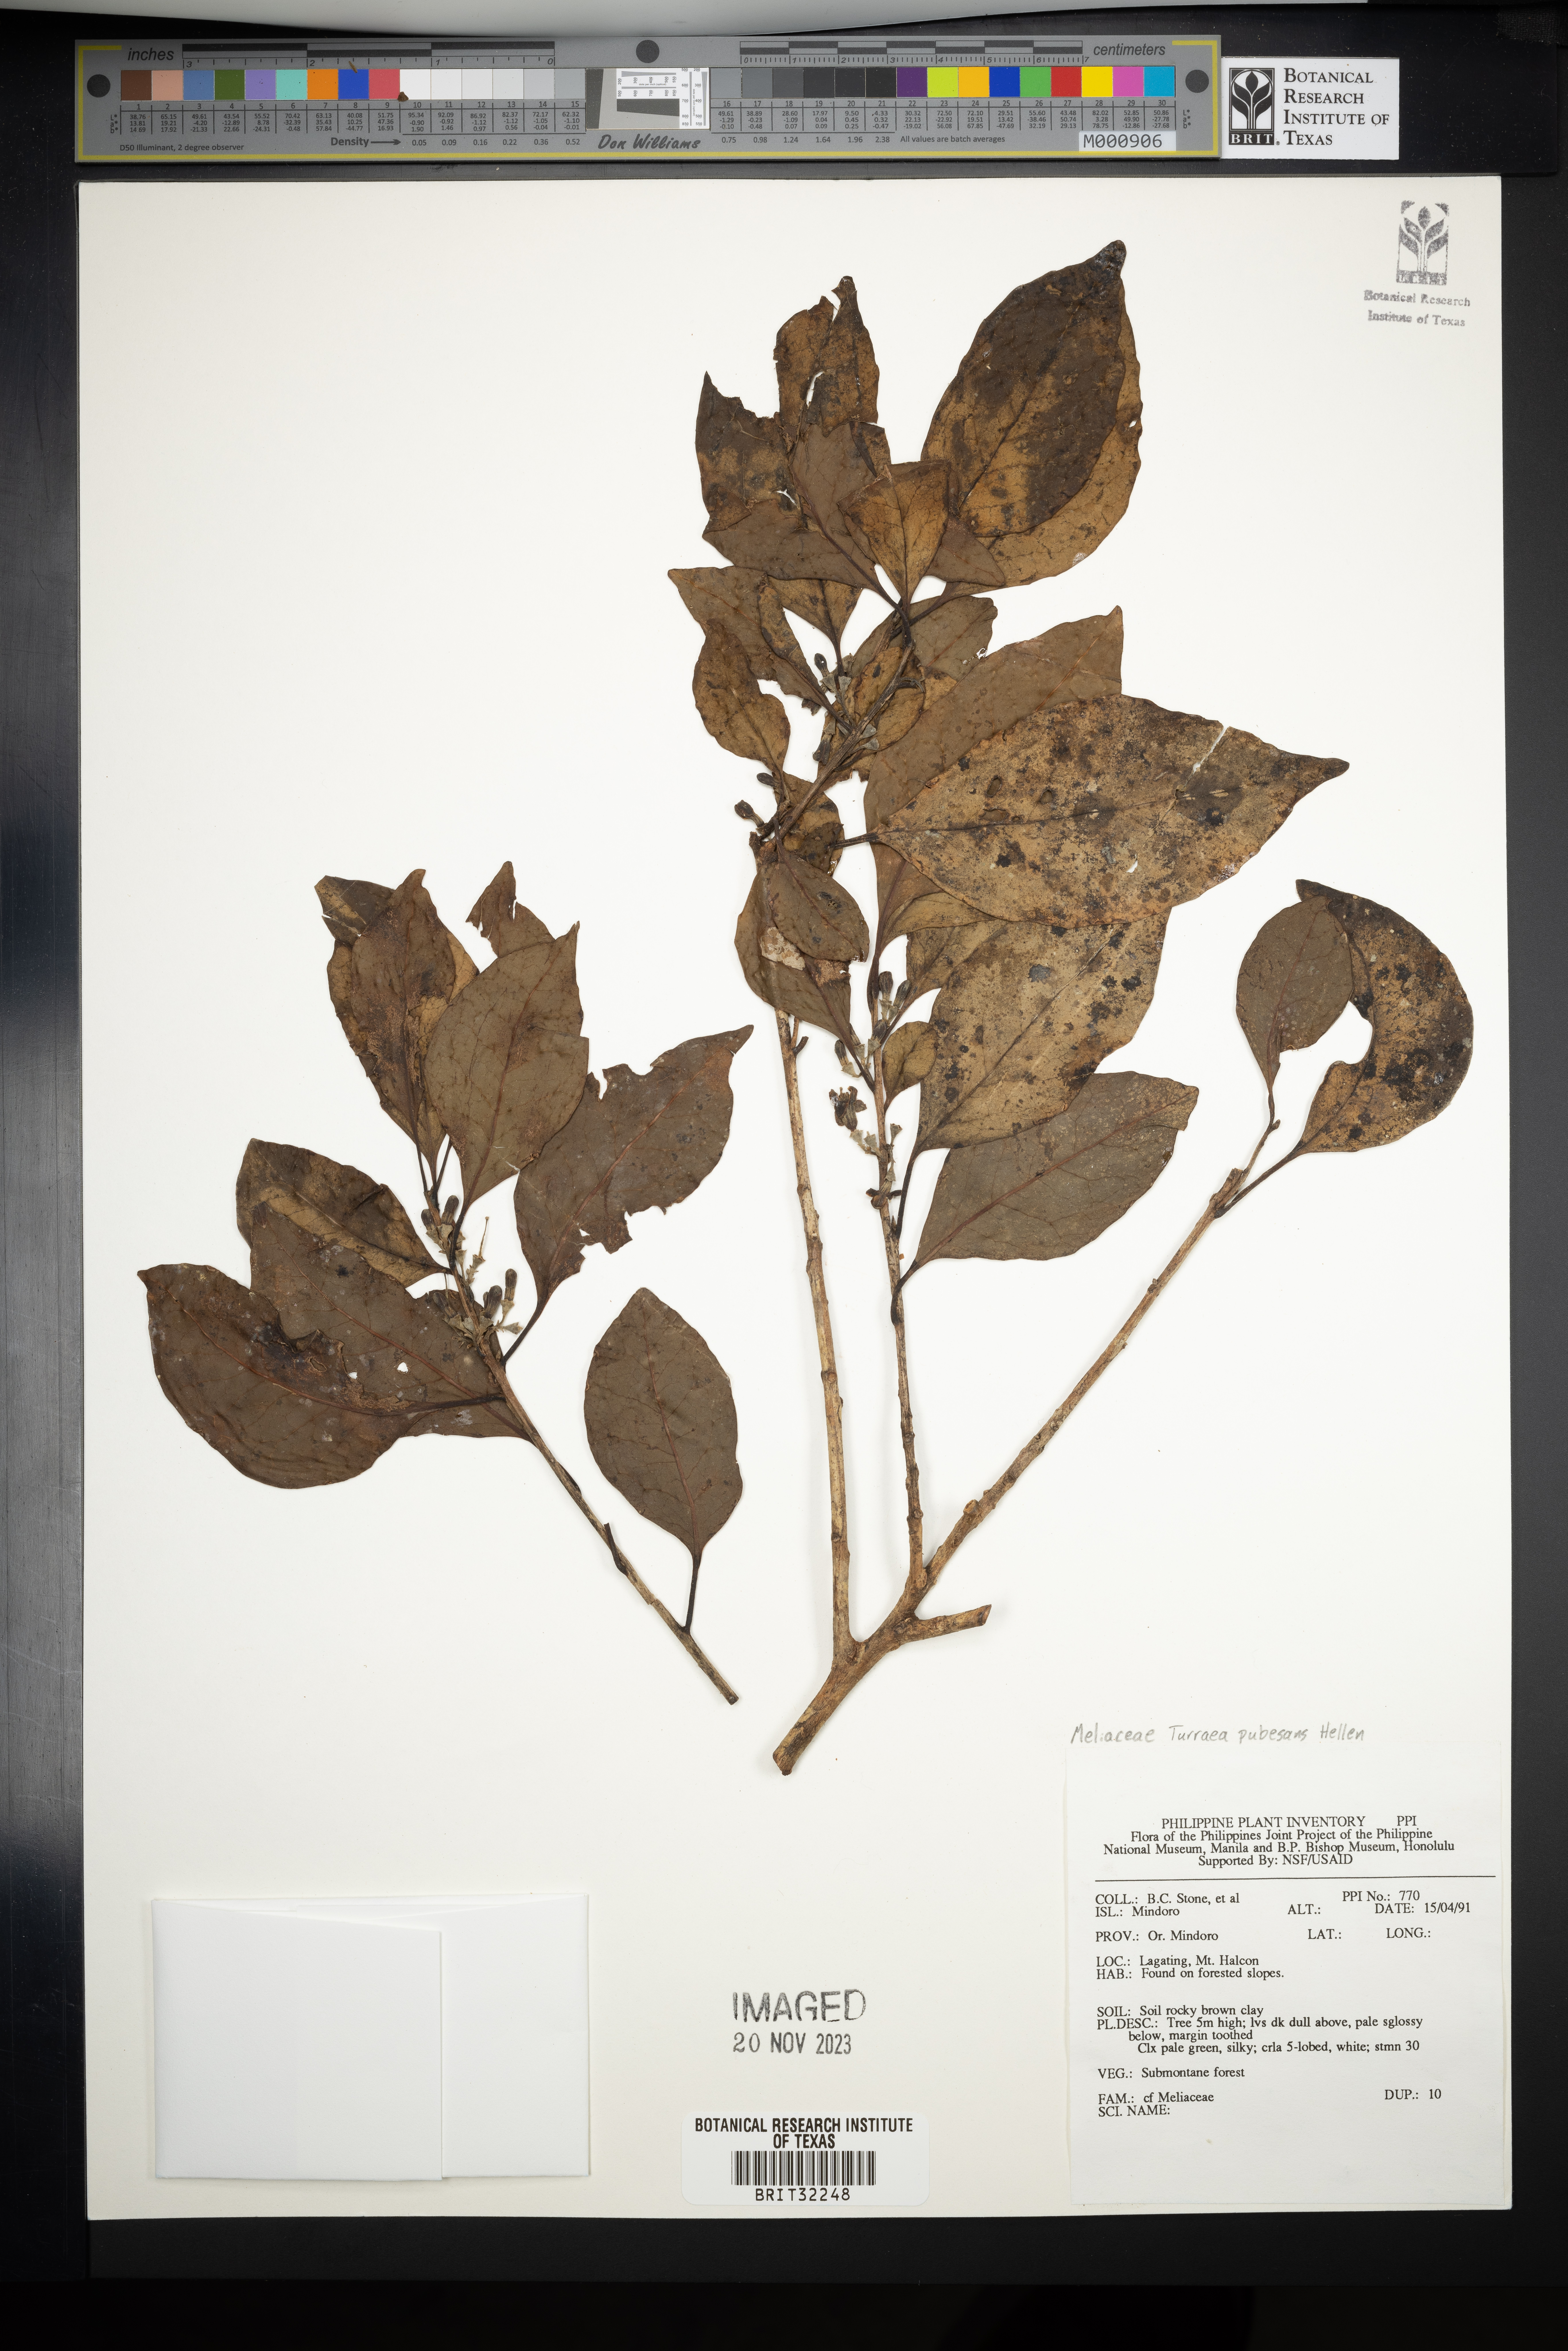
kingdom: Plantae
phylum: Tracheophyta
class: Magnoliopsida
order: Sapindales
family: Meliaceae
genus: Turraea
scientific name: Turraea pubescens
